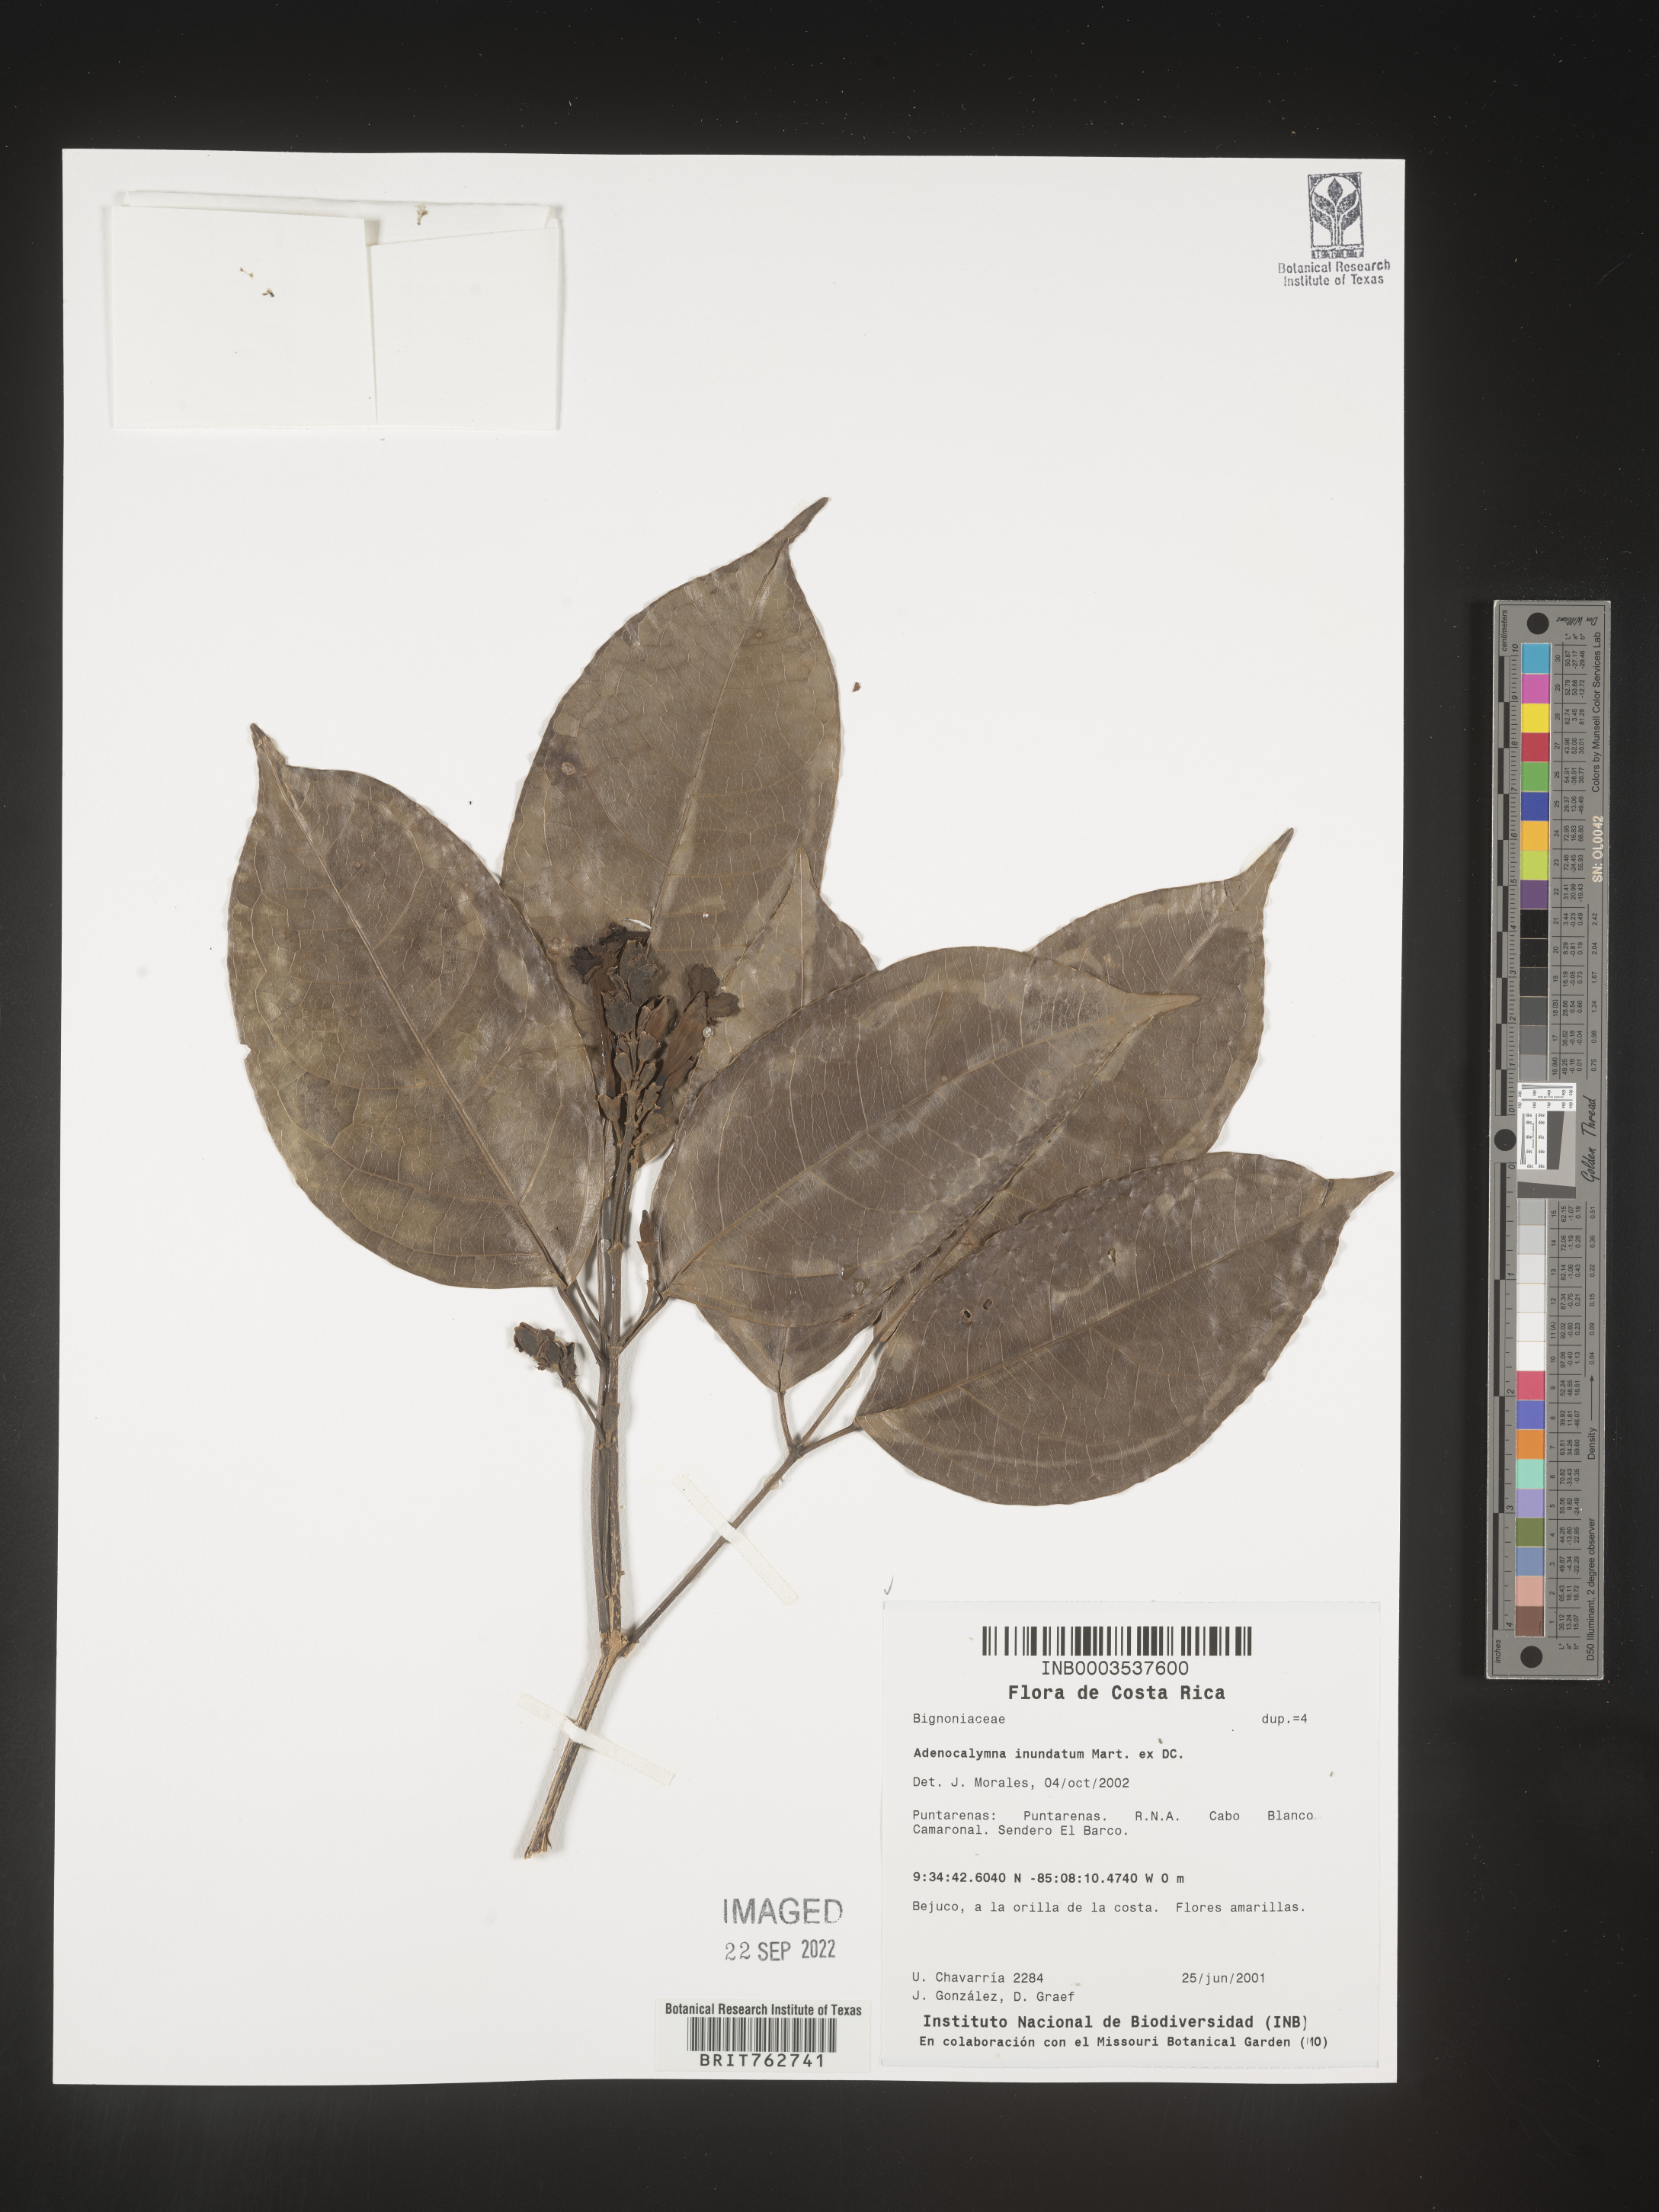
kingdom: Plantae
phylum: Tracheophyta
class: Magnoliopsida
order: Lamiales
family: Bignoniaceae
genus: Adenocalymma
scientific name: Adenocalymma
